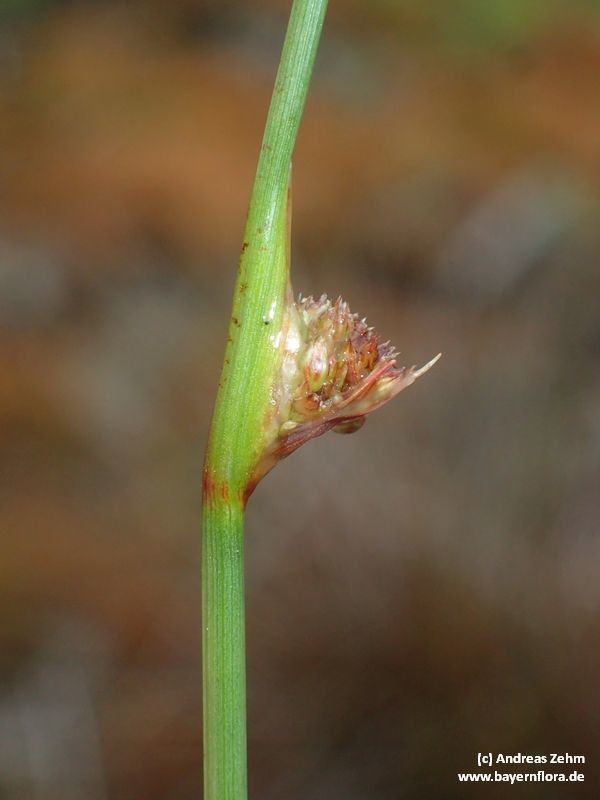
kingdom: Plantae
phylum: Tracheophyta
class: Liliopsida
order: Poales
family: Juncaceae
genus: Juncus
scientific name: Juncus conglomeratus
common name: Compact rush
